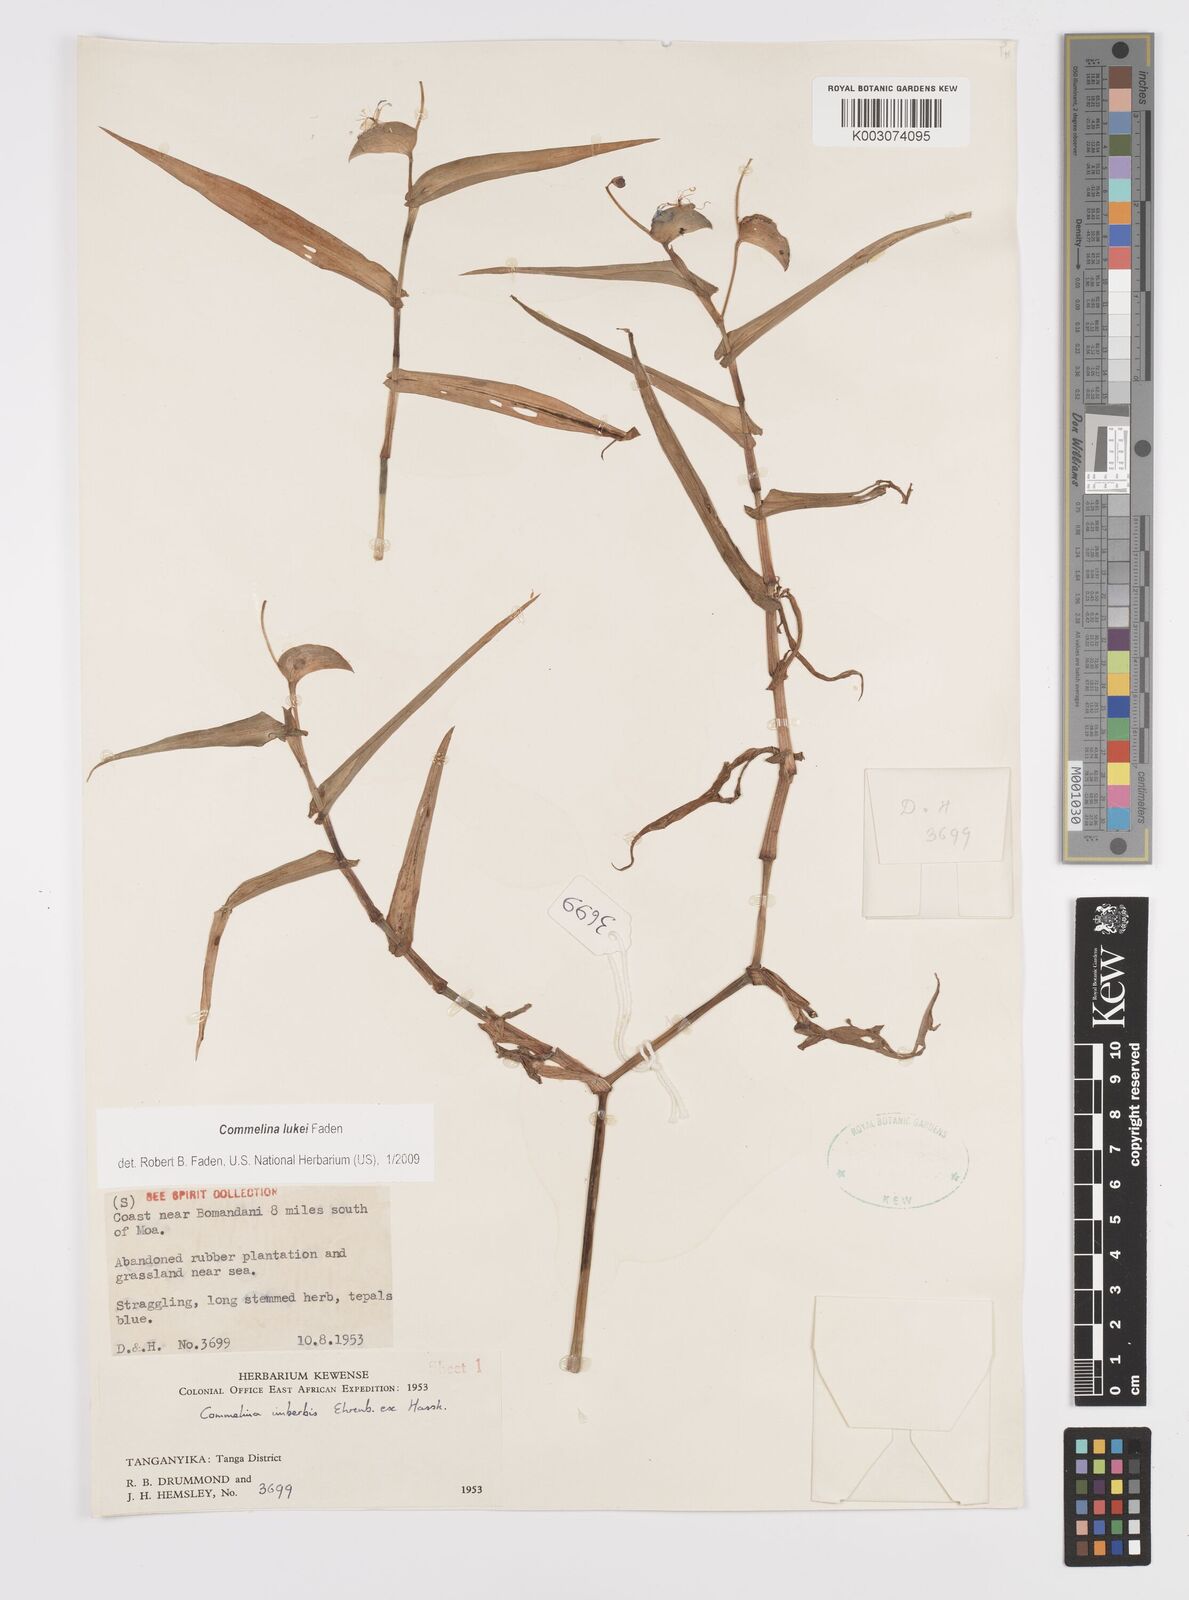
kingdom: Plantae
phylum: Tracheophyta
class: Liliopsida
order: Commelinales
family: Commelinaceae
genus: Commelina
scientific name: Commelina lukei
